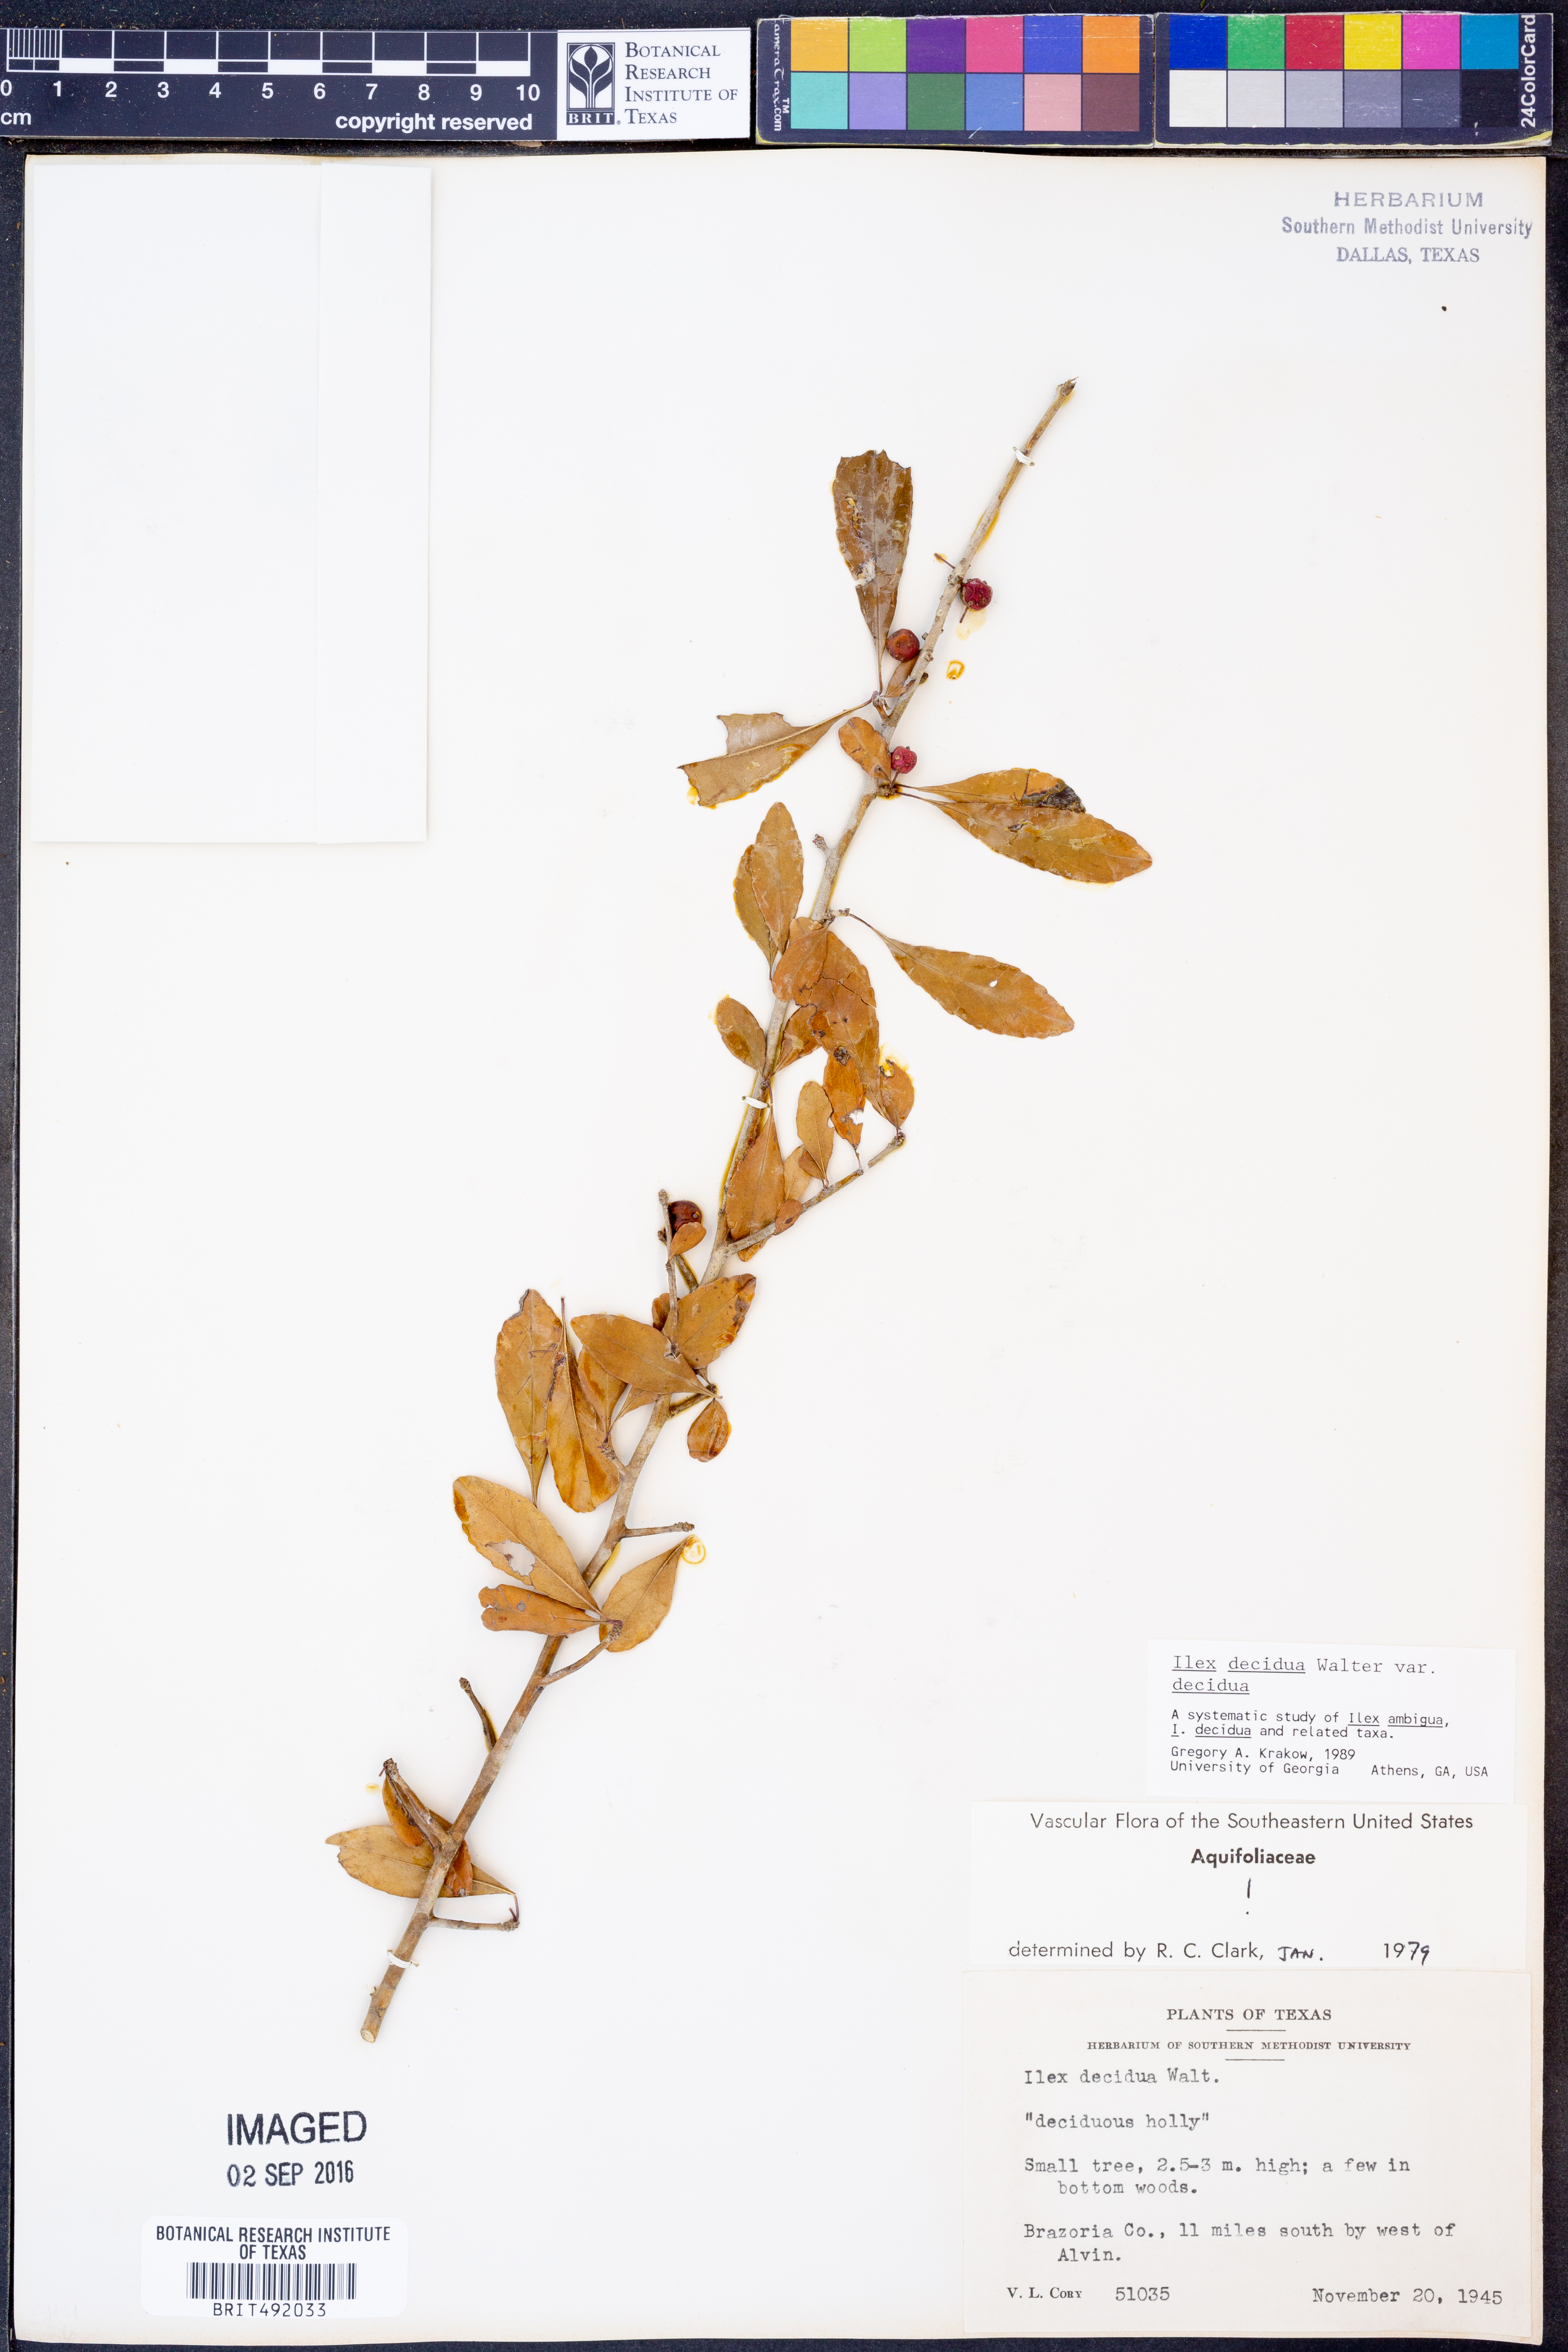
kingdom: Plantae
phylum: Tracheophyta
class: Magnoliopsida
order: Aquifoliales
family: Aquifoliaceae
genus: Ilex
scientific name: Ilex decidua
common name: Possum-haw
